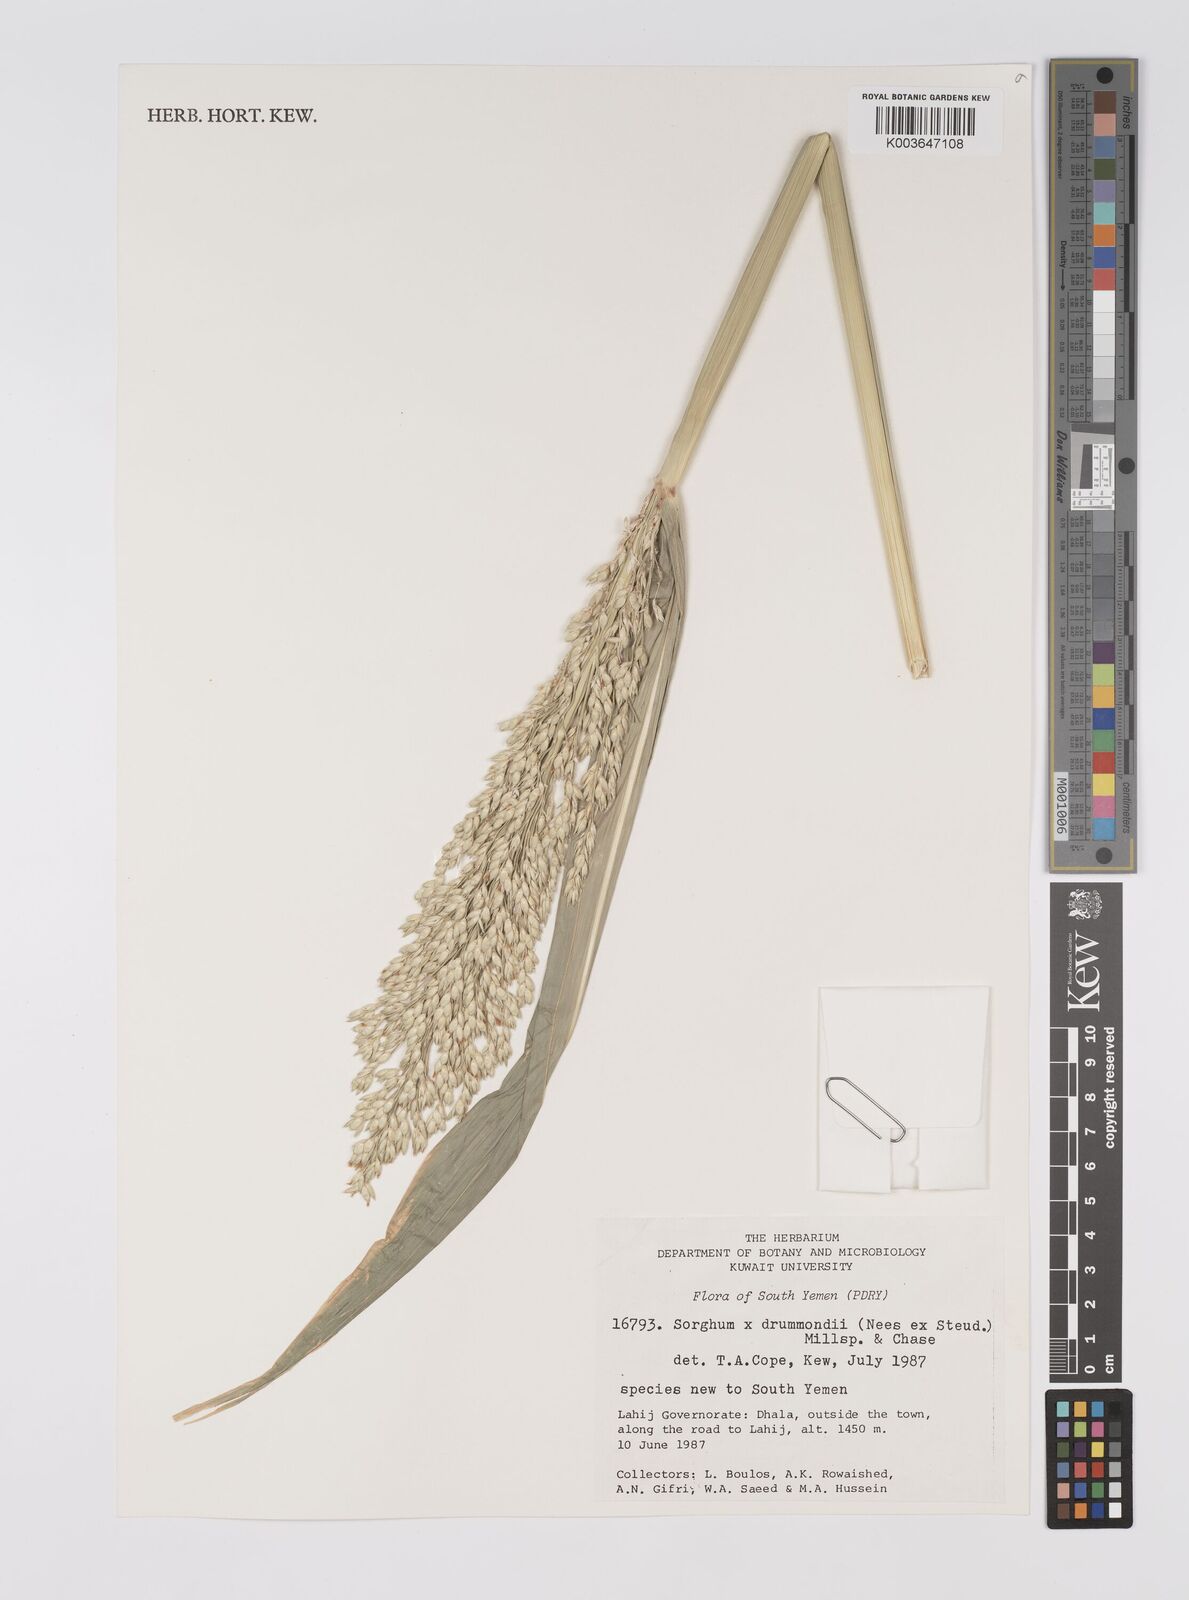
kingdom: Plantae
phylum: Tracheophyta
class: Liliopsida
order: Poales
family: Poaceae
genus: Sorghum
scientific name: Sorghum drummondii
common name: Sudangrass
